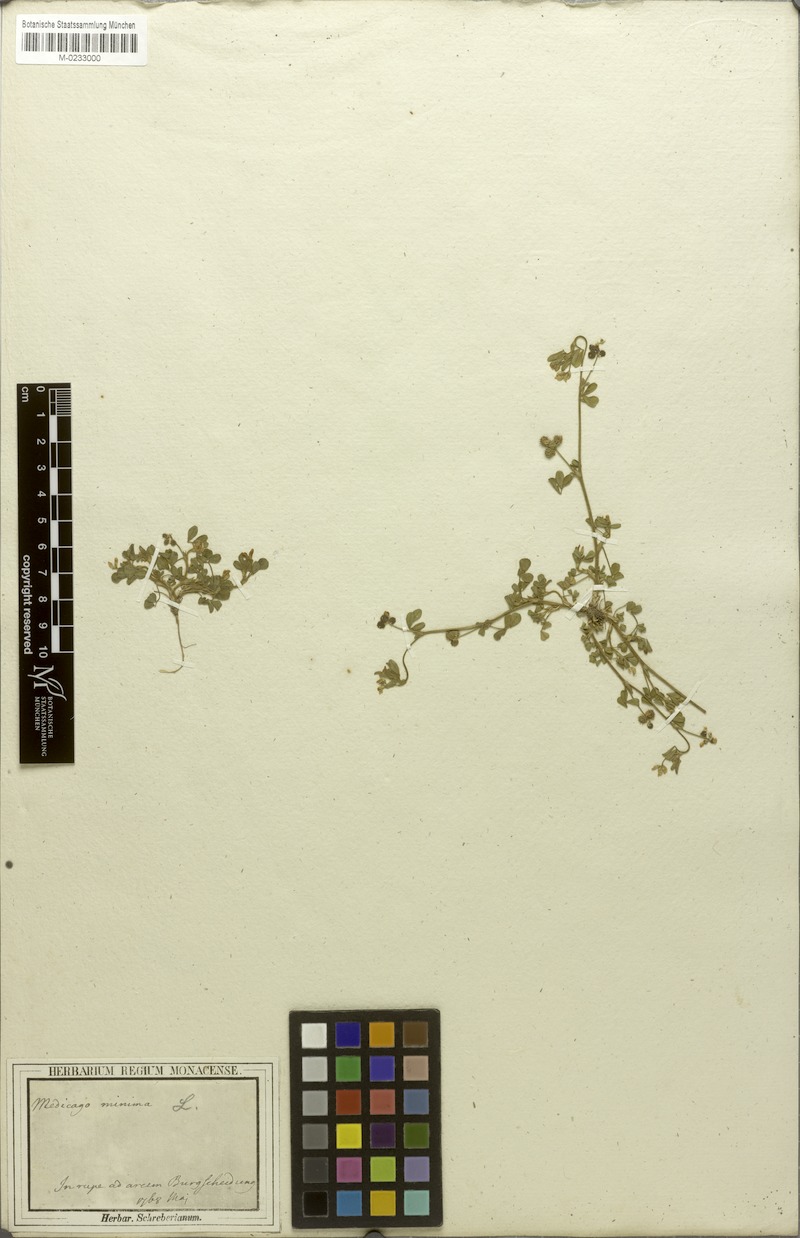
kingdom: Plantae
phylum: Tracheophyta
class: Magnoliopsida
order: Fabales
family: Fabaceae
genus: Medicago
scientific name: Medicago minima
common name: Little bur-clover
